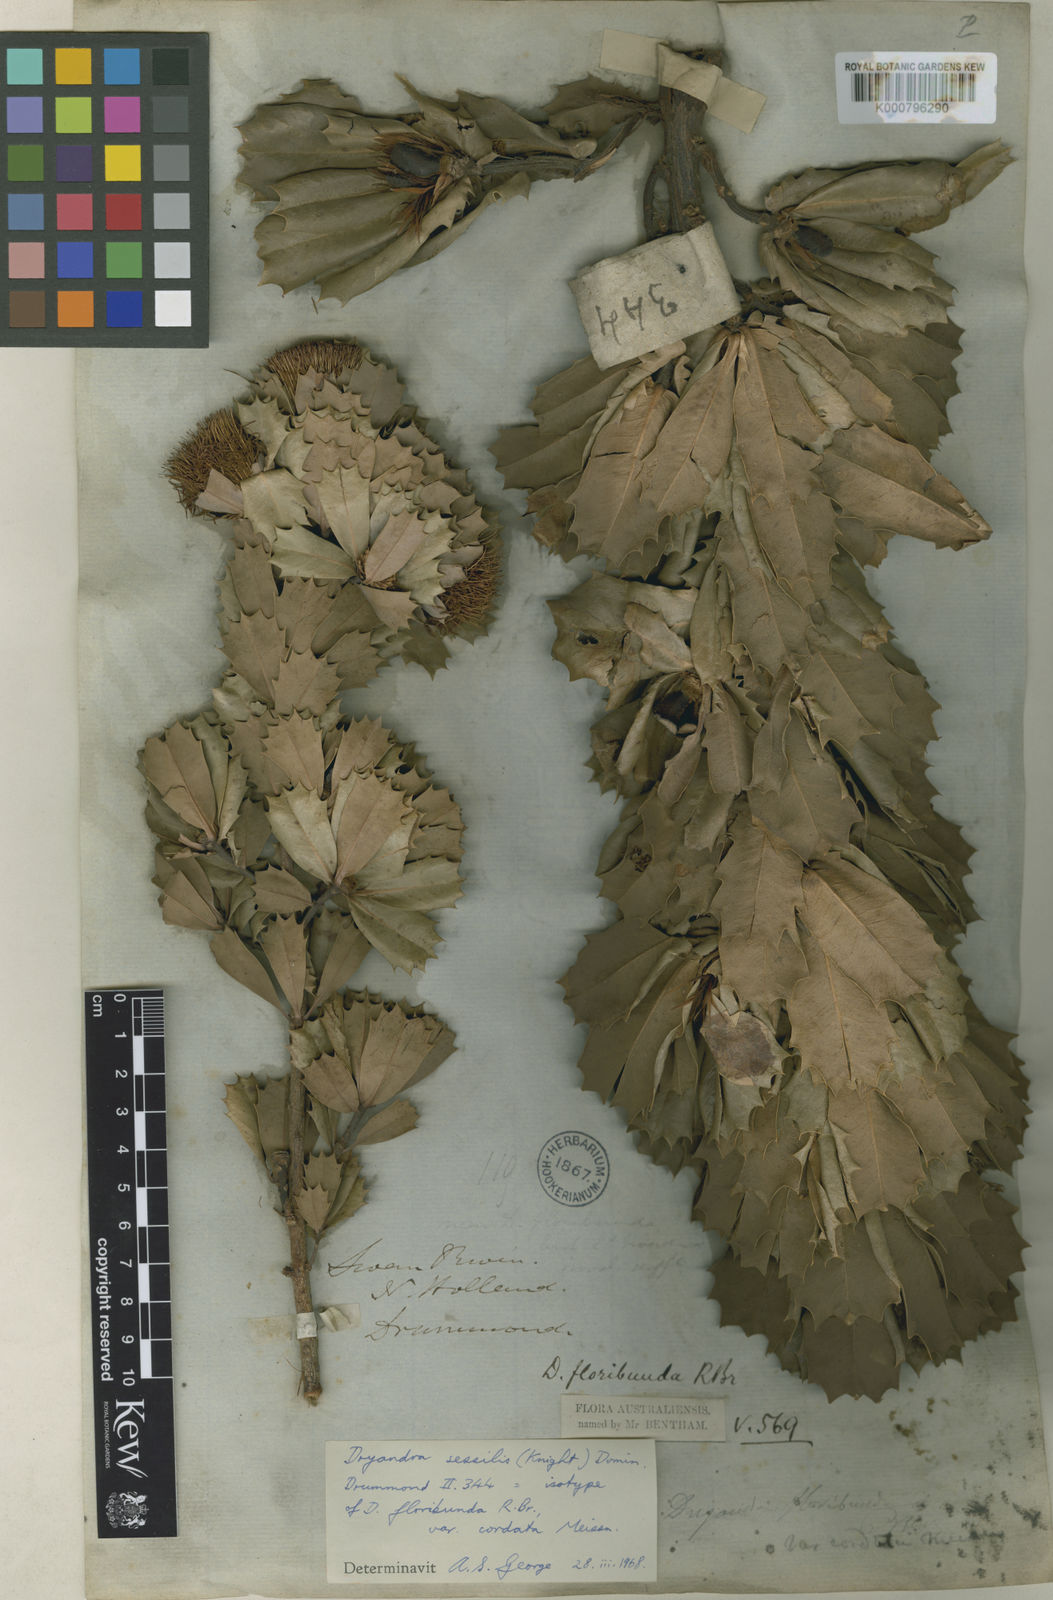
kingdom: Plantae
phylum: Tracheophyta
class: Magnoliopsida
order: Proteales
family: Proteaceae
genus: Banksia
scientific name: Banksia sessilis
